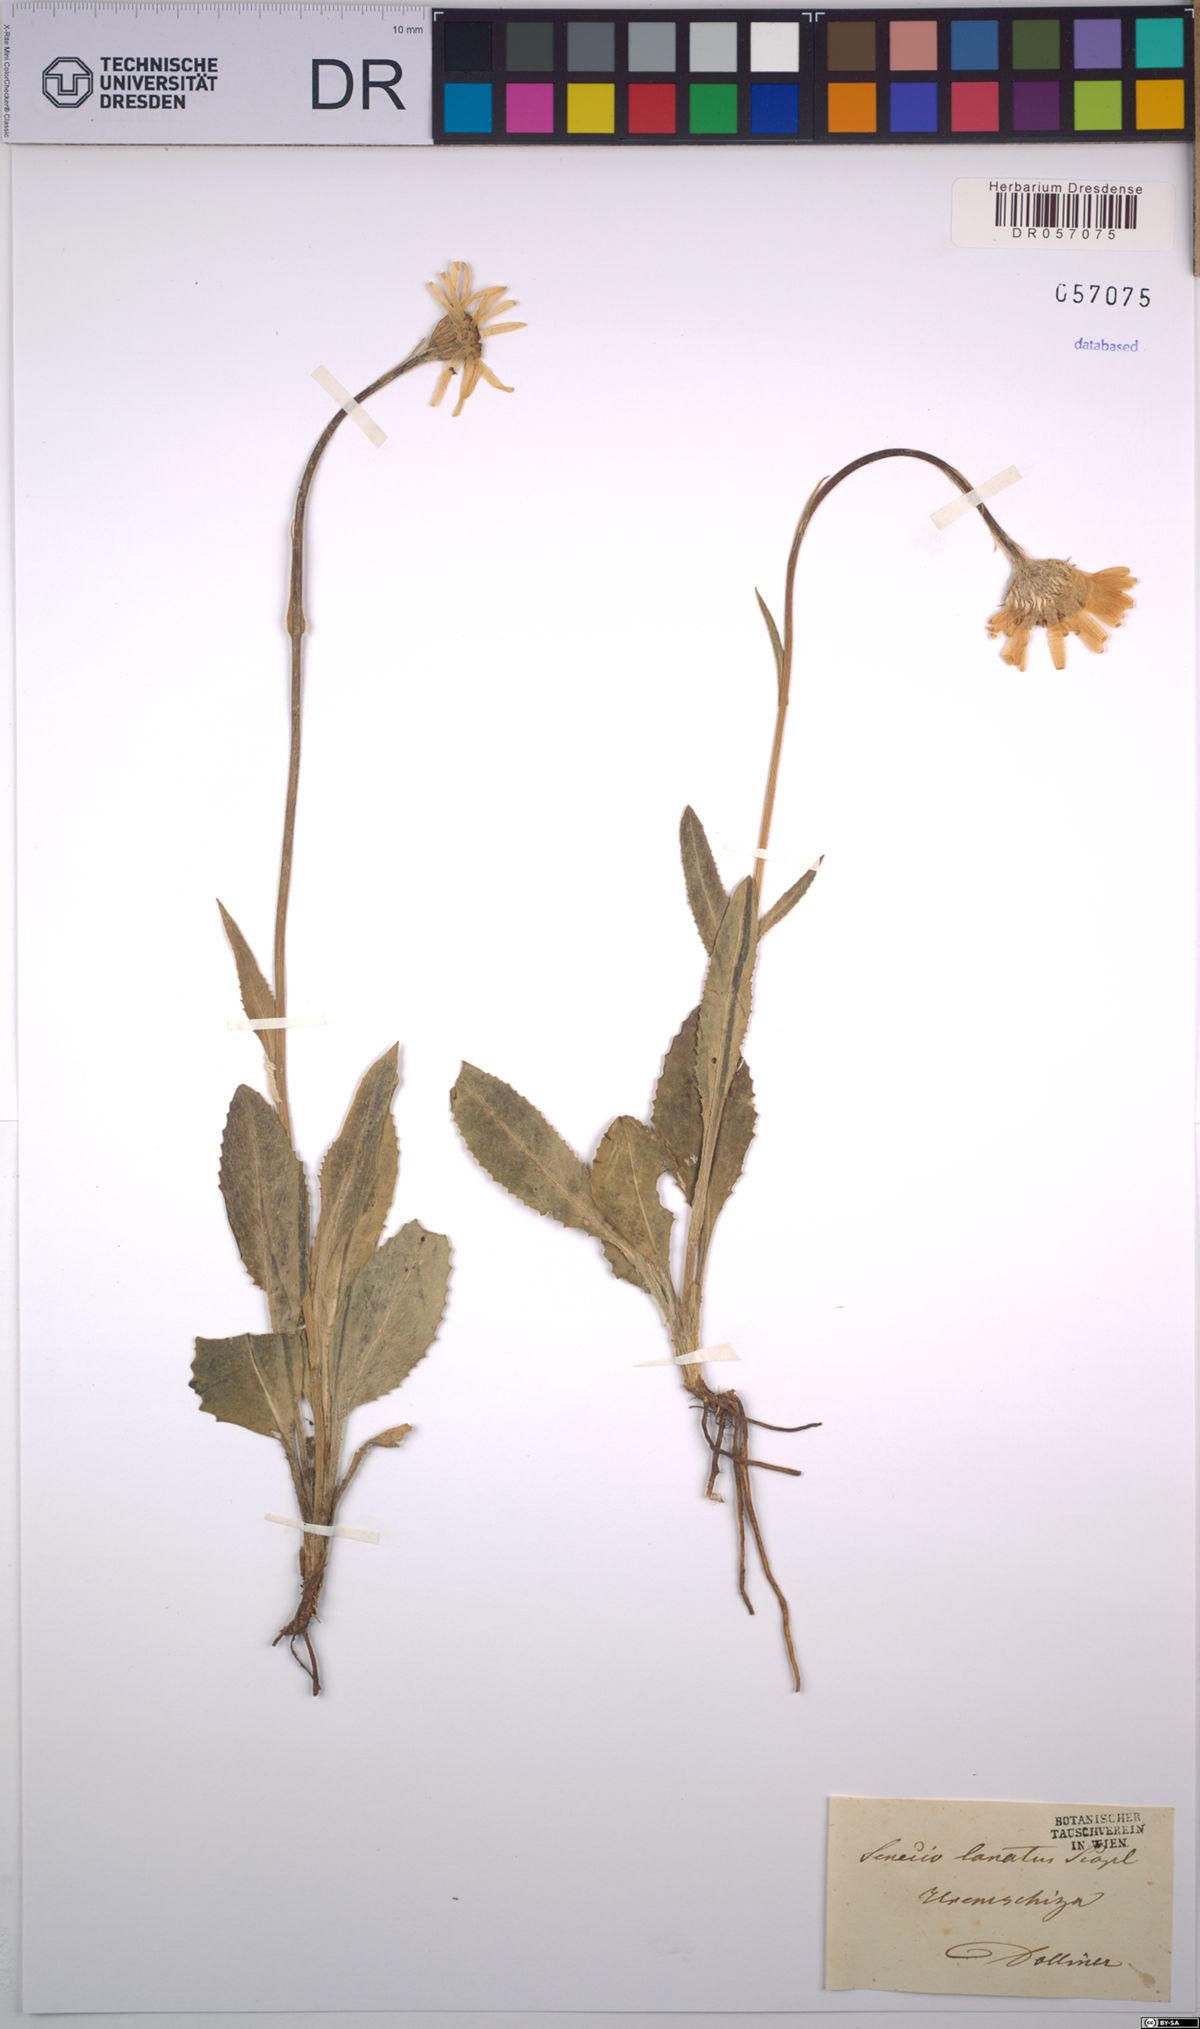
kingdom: Plantae
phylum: Tracheophyta
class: Magnoliopsida
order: Asterales
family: Asteraceae
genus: Senecio
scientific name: Senecio scopolii
